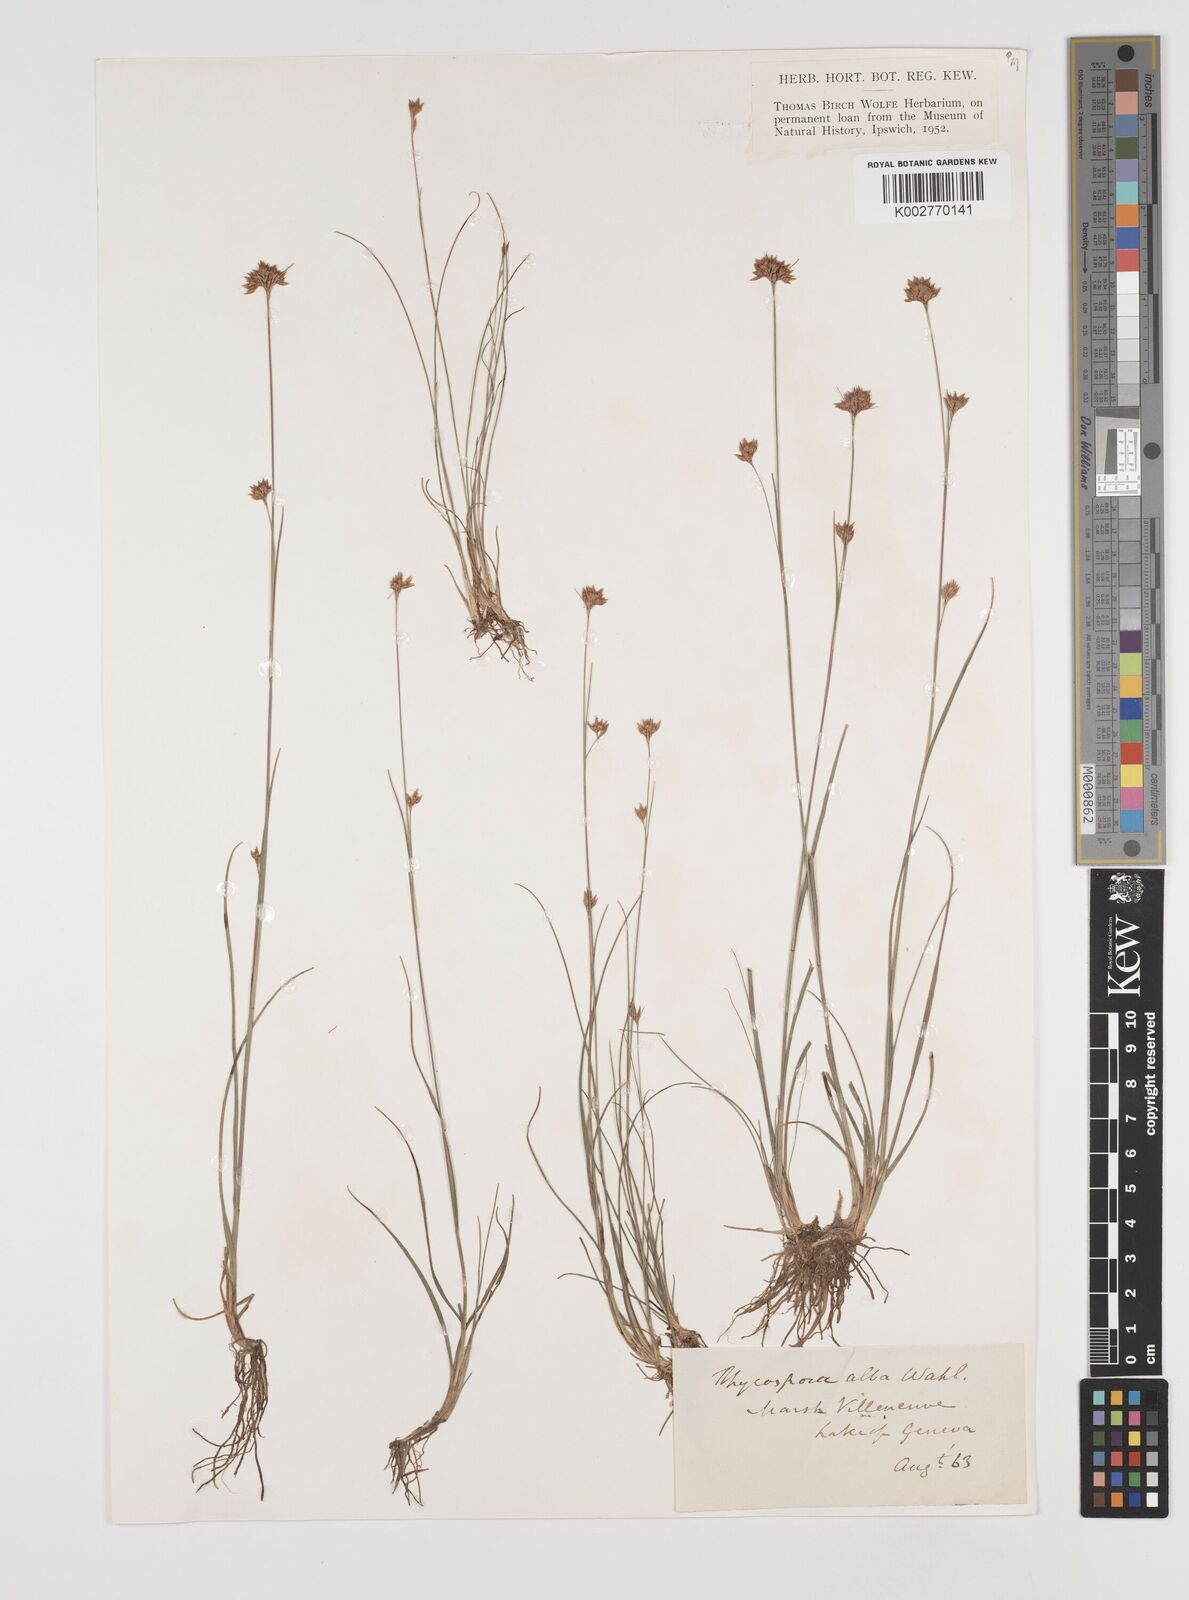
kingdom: Plantae
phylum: Tracheophyta
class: Liliopsida
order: Poales
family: Cyperaceae
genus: Rhynchospora
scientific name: Rhynchospora alba
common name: White beak-sedge
